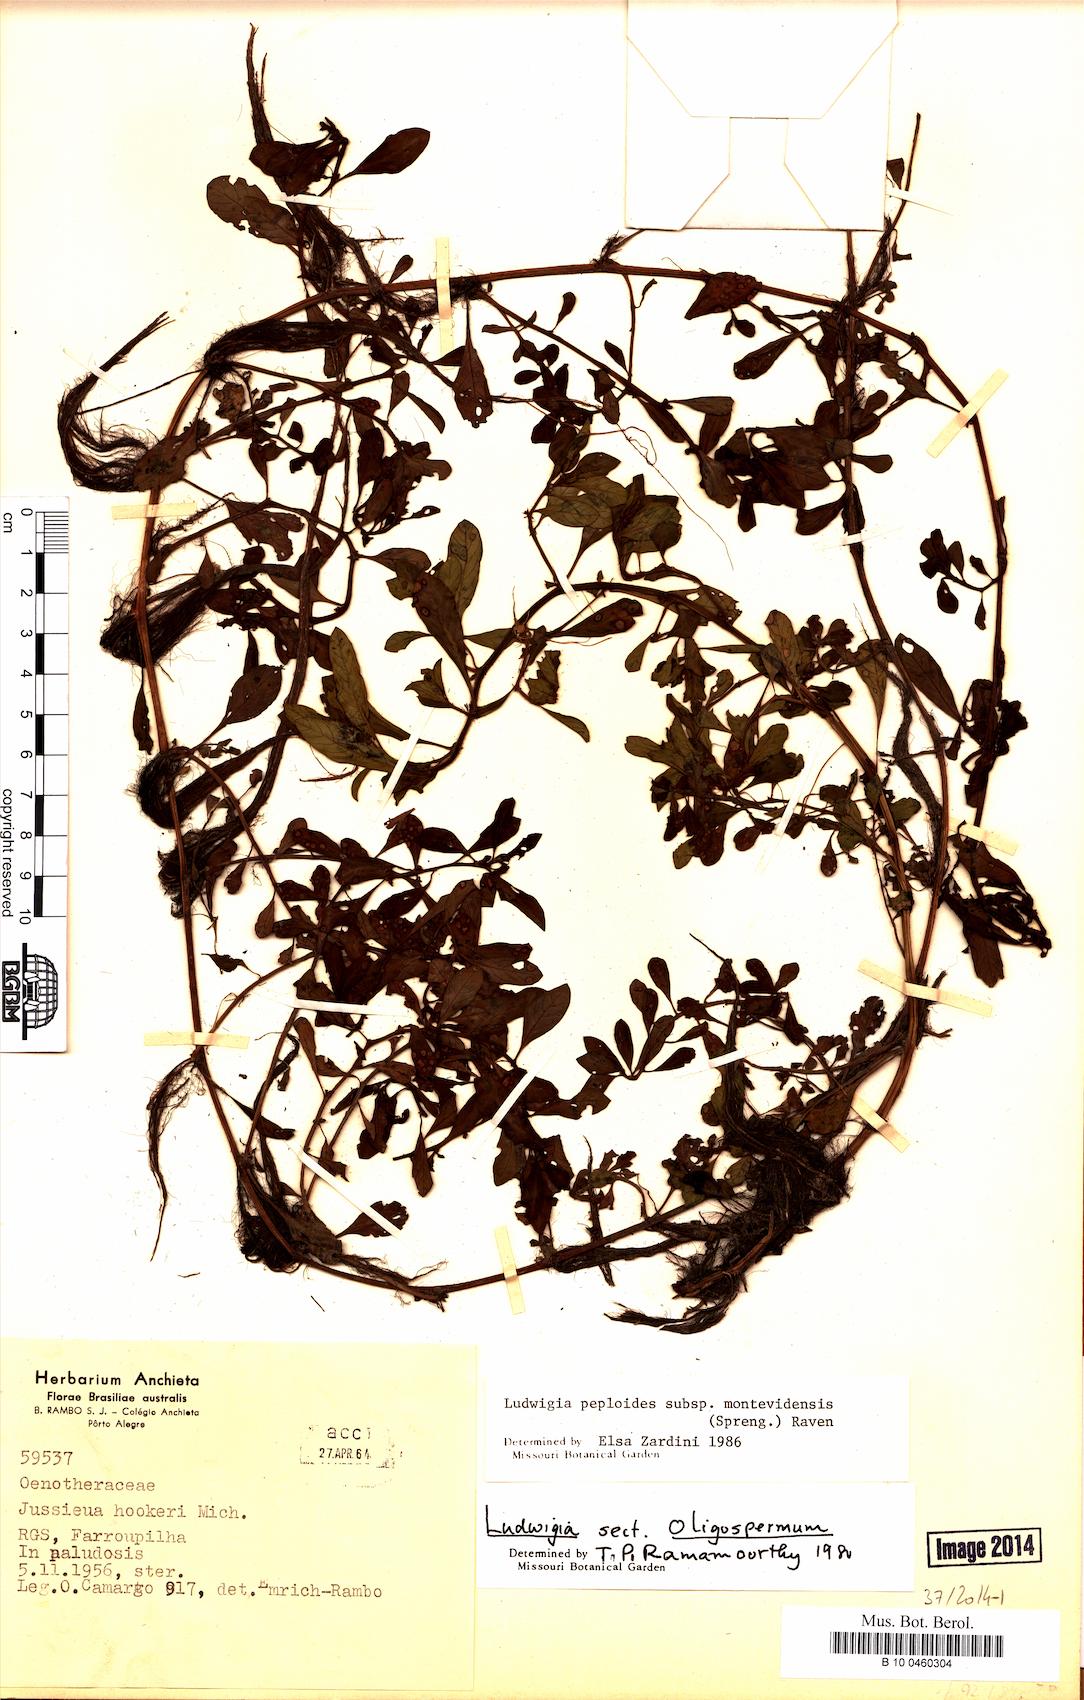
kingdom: Plantae
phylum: Tracheophyta
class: Magnoliopsida
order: Myrtales
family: Onagraceae
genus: Ludwigia
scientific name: Ludwigia peploides
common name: Floating primrose-willow
